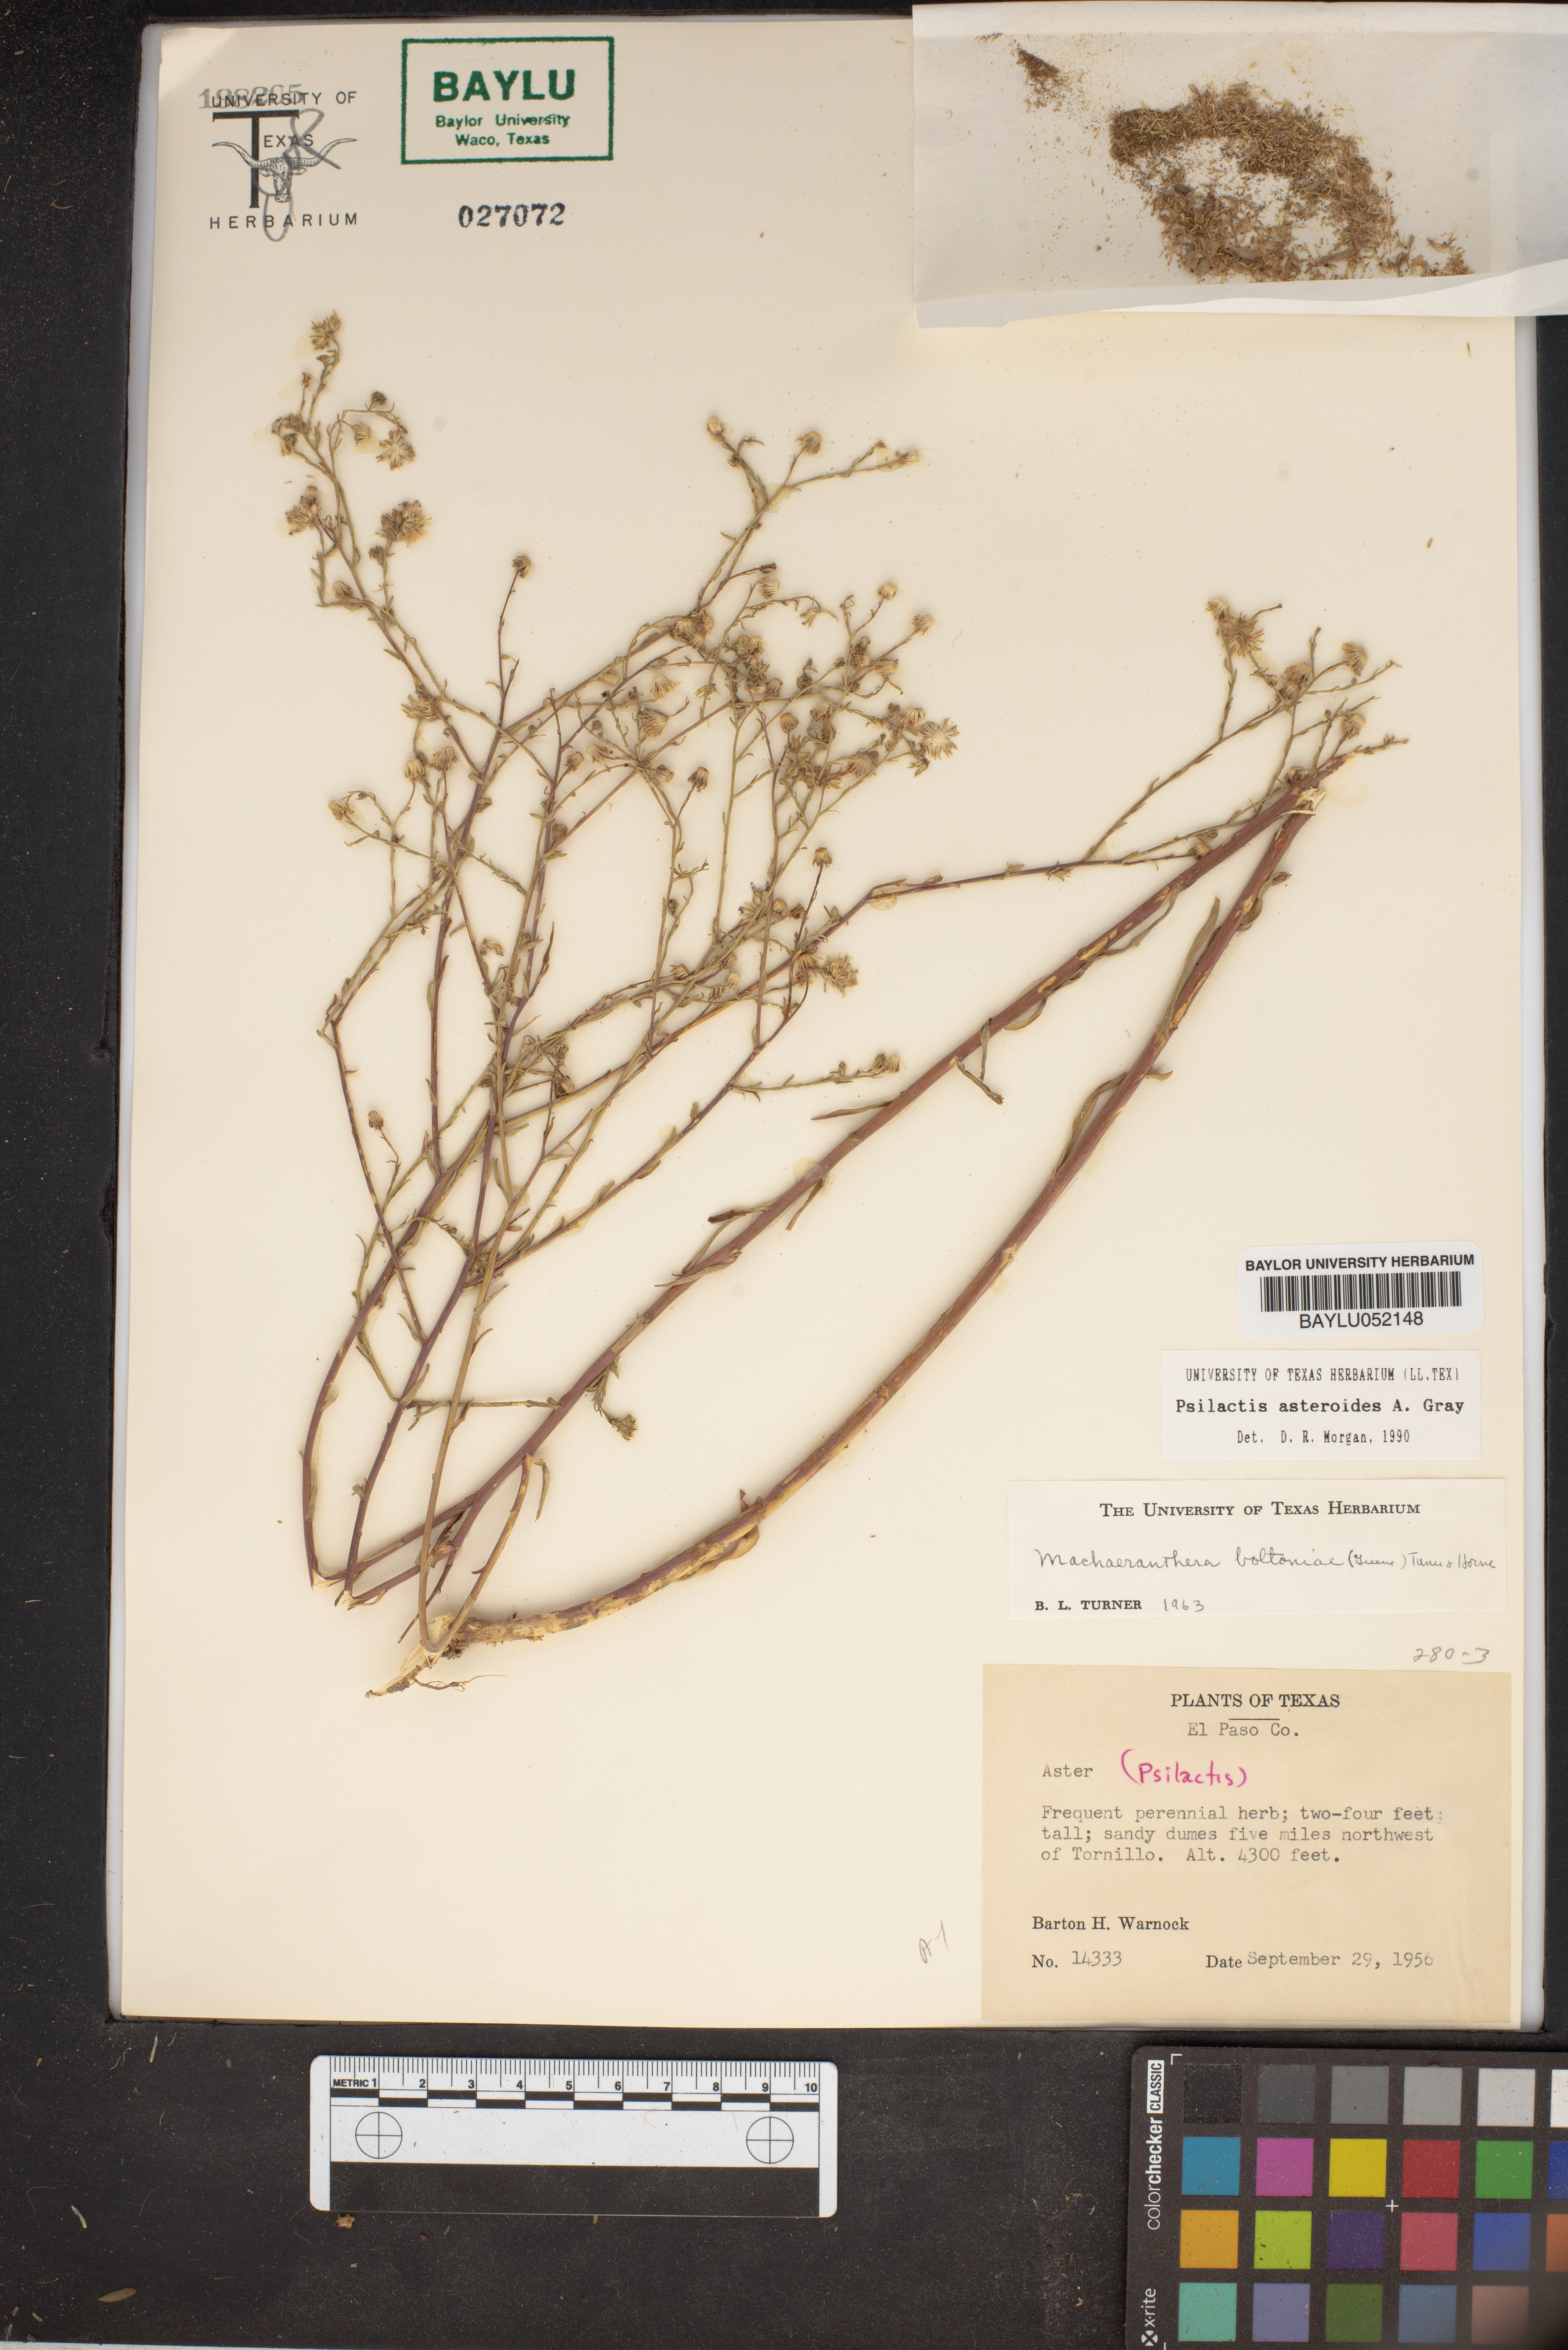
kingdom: Plantae
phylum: Tracheophyta
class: Magnoliopsida
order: Asterales
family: Asteraceae
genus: Psilactis
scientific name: Psilactis asteroides
